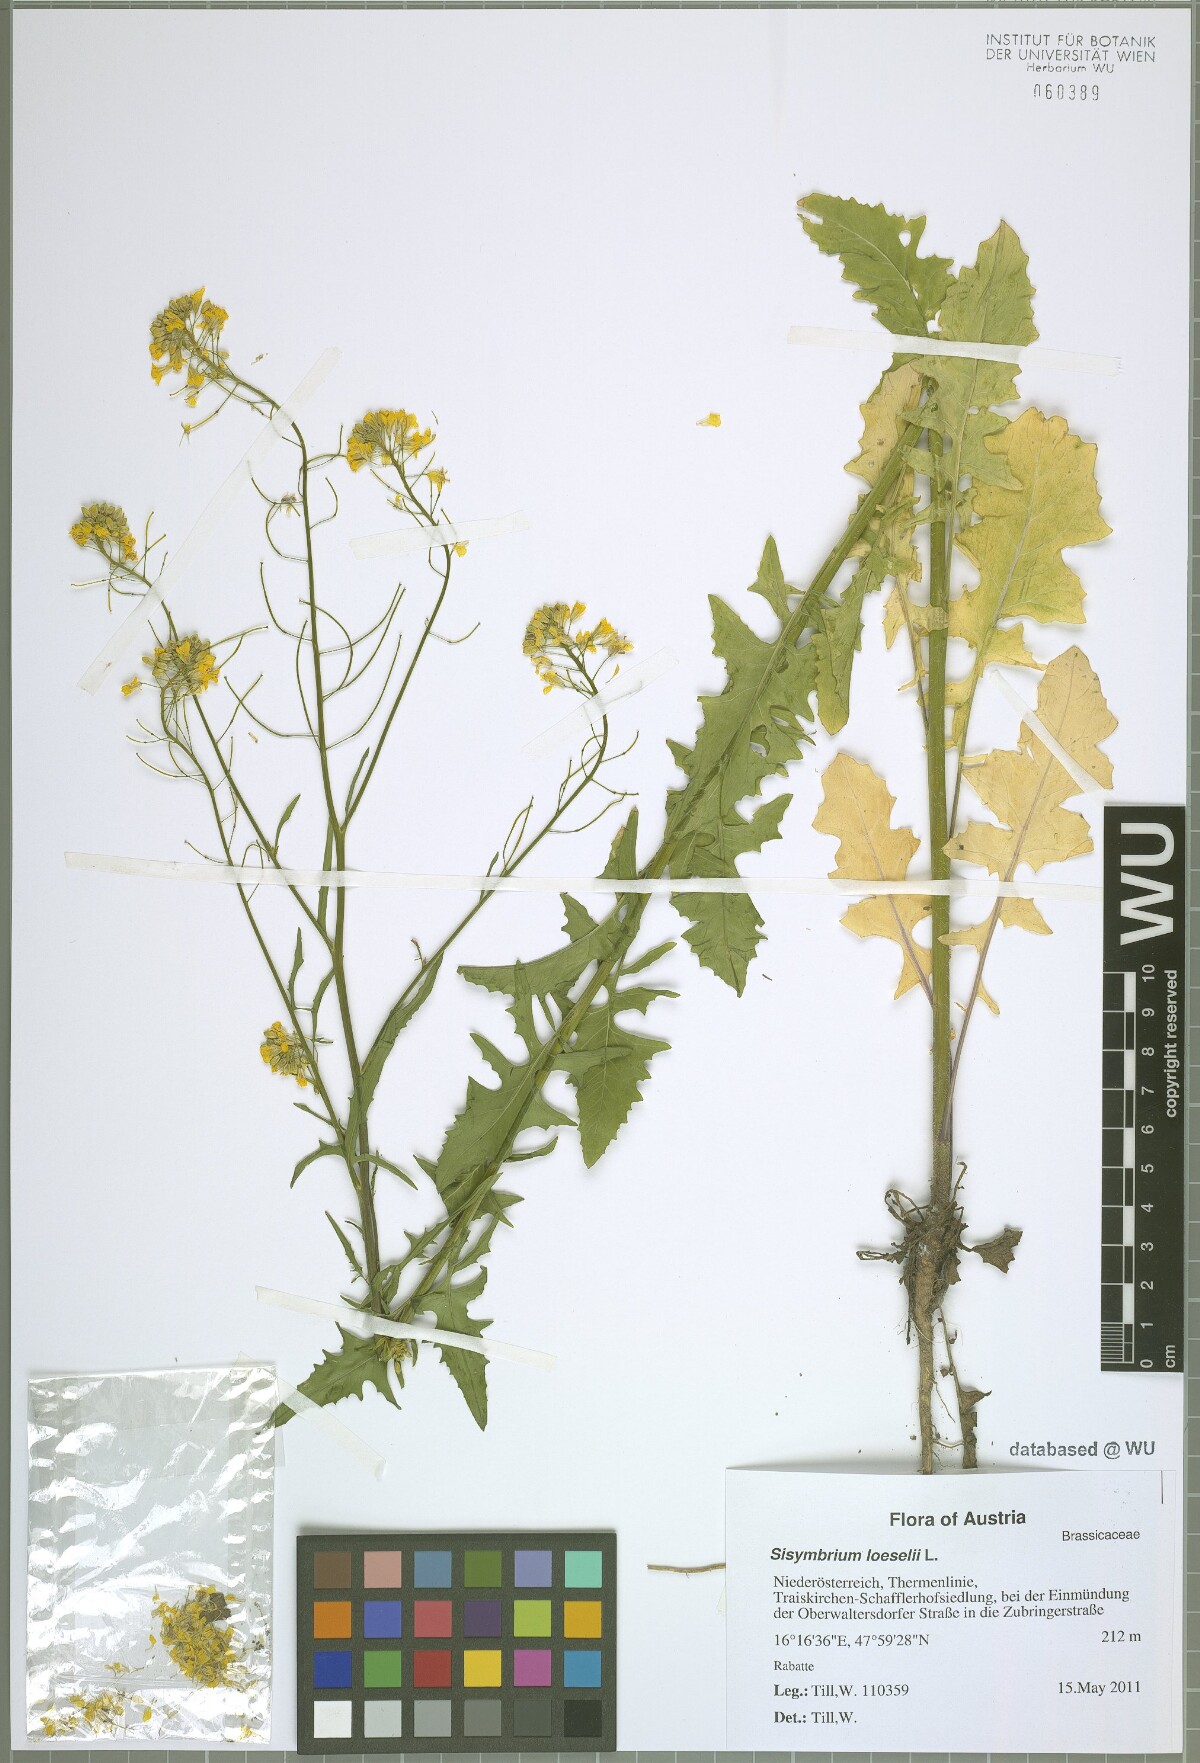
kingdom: Plantae
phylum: Tracheophyta
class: Magnoliopsida
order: Brassicales
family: Brassicaceae
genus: Sisymbrium
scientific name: Sisymbrium loeselii
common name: False london-rocket
